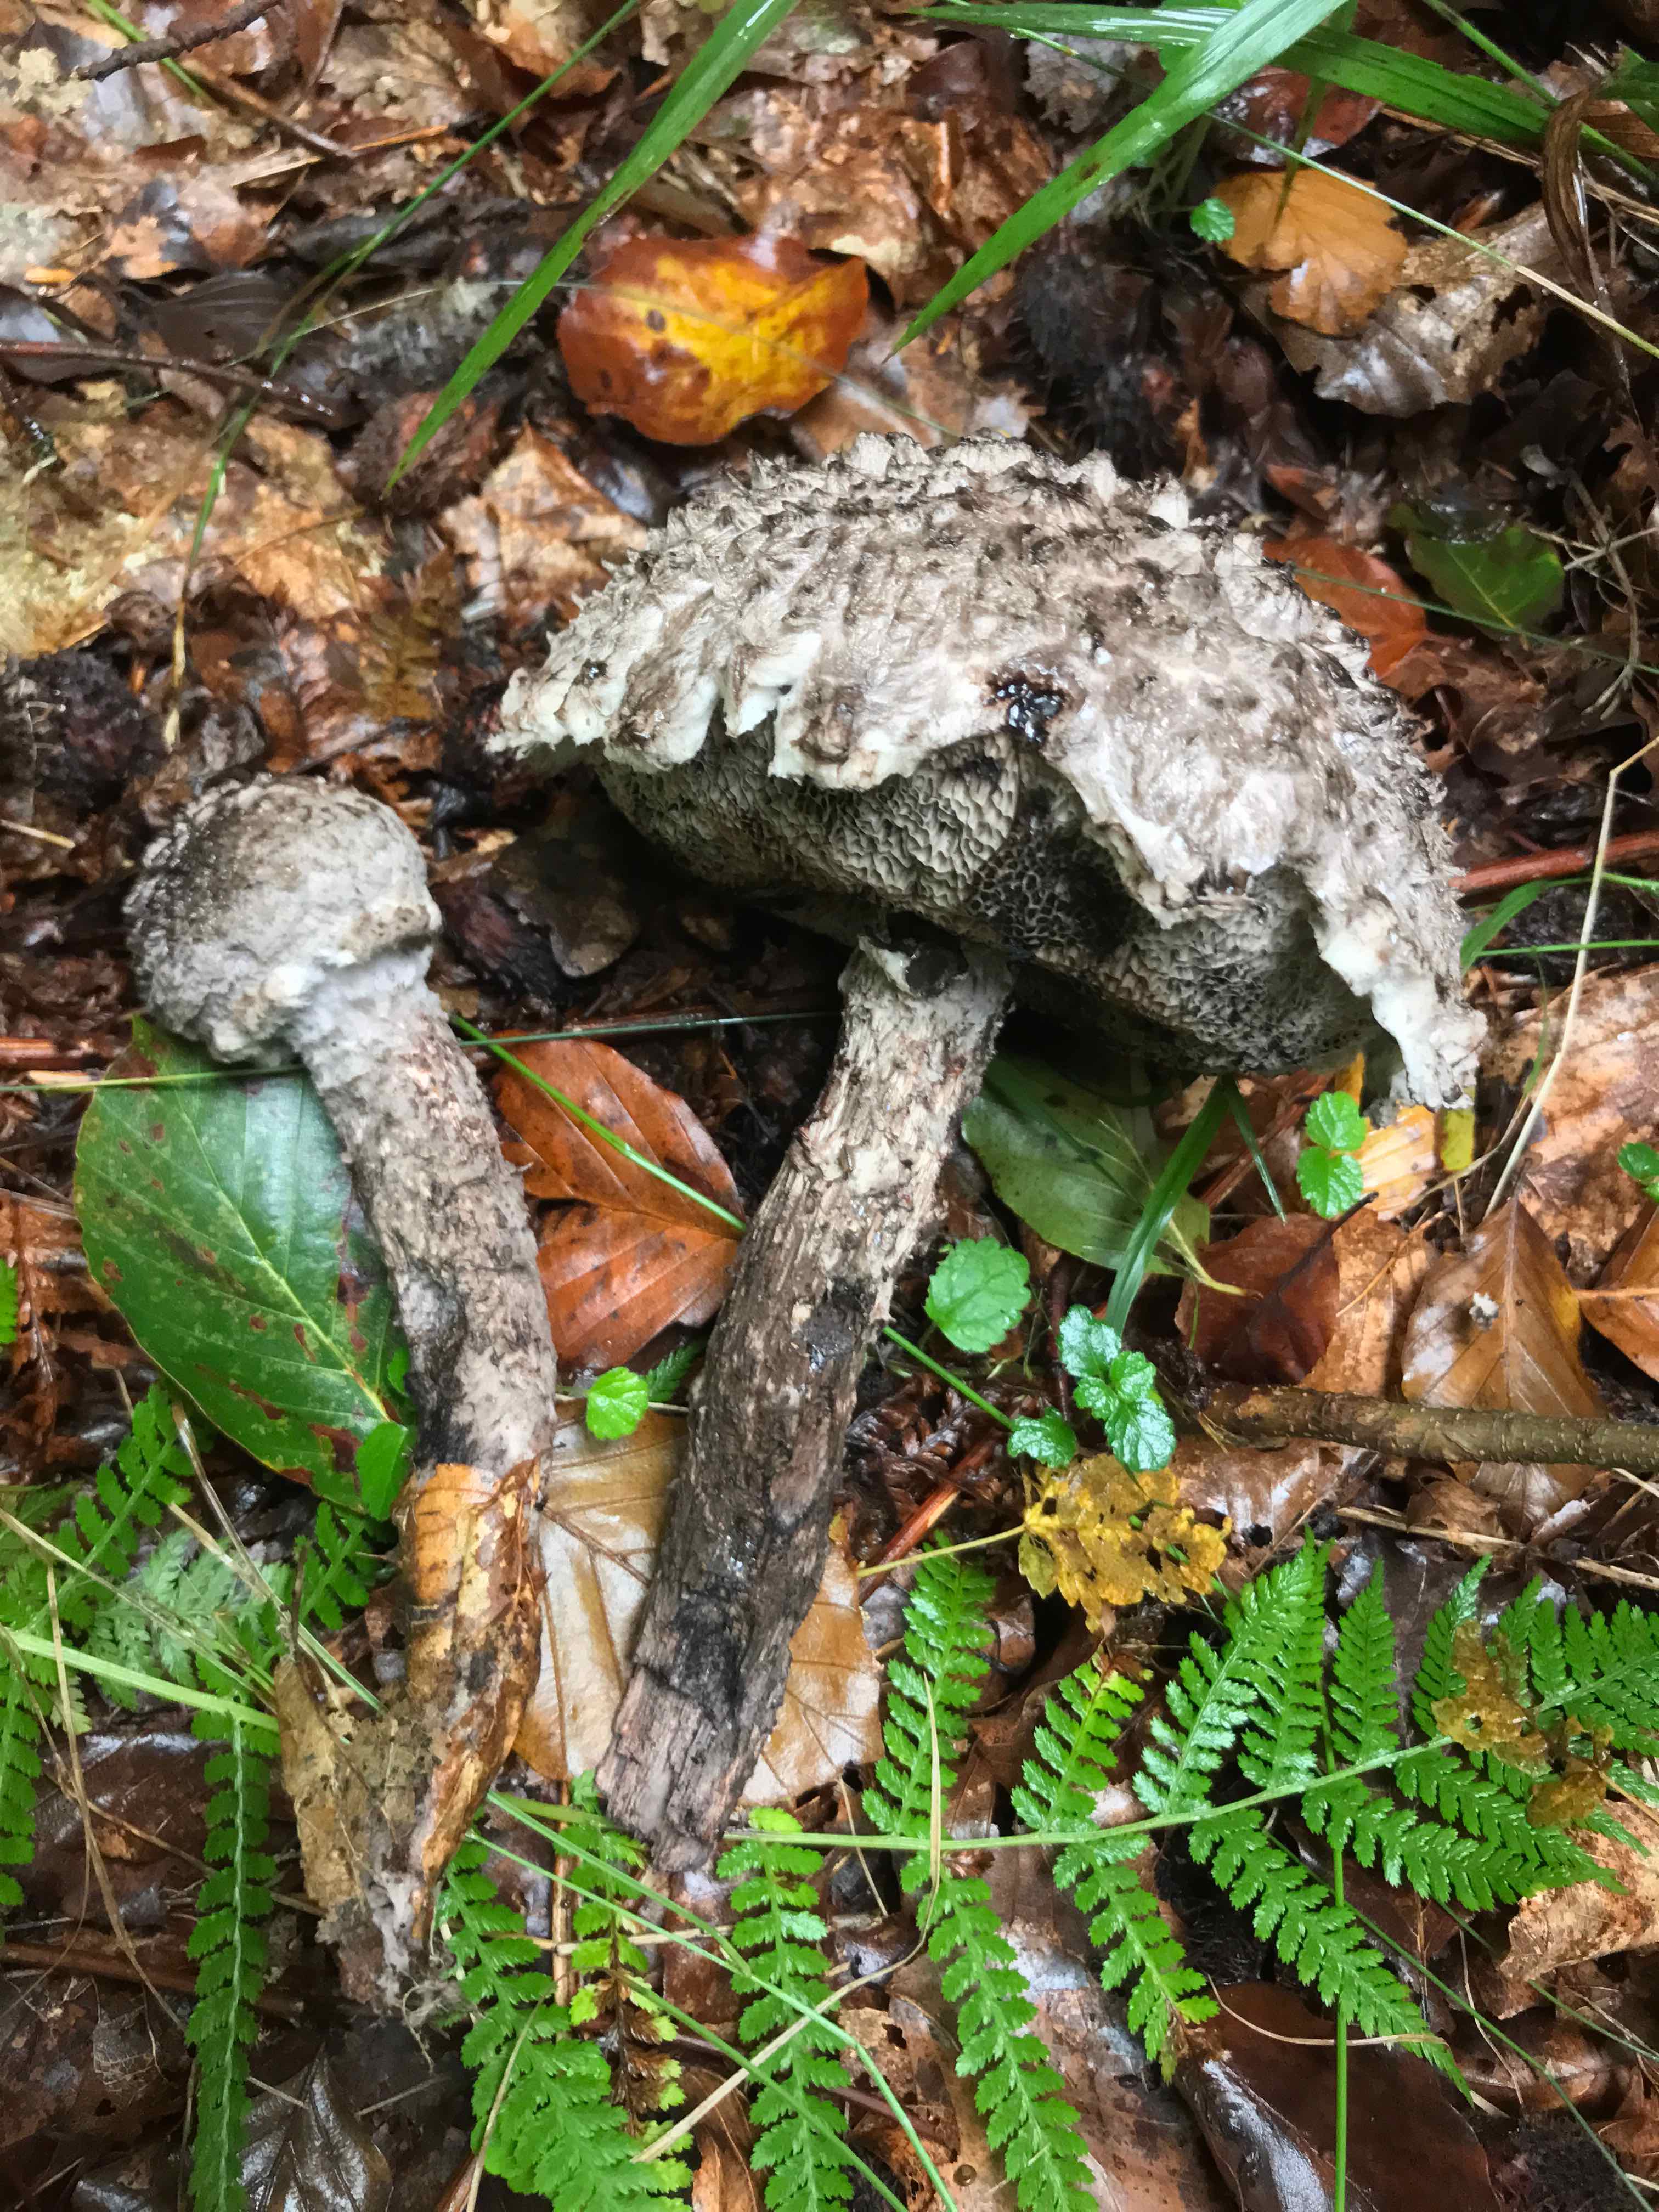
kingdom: Fungi
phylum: Basidiomycota
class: Agaricomycetes
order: Boletales
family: Boletaceae
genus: Strobilomyces
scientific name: Strobilomyces strobilaceus
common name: koglerørhat
